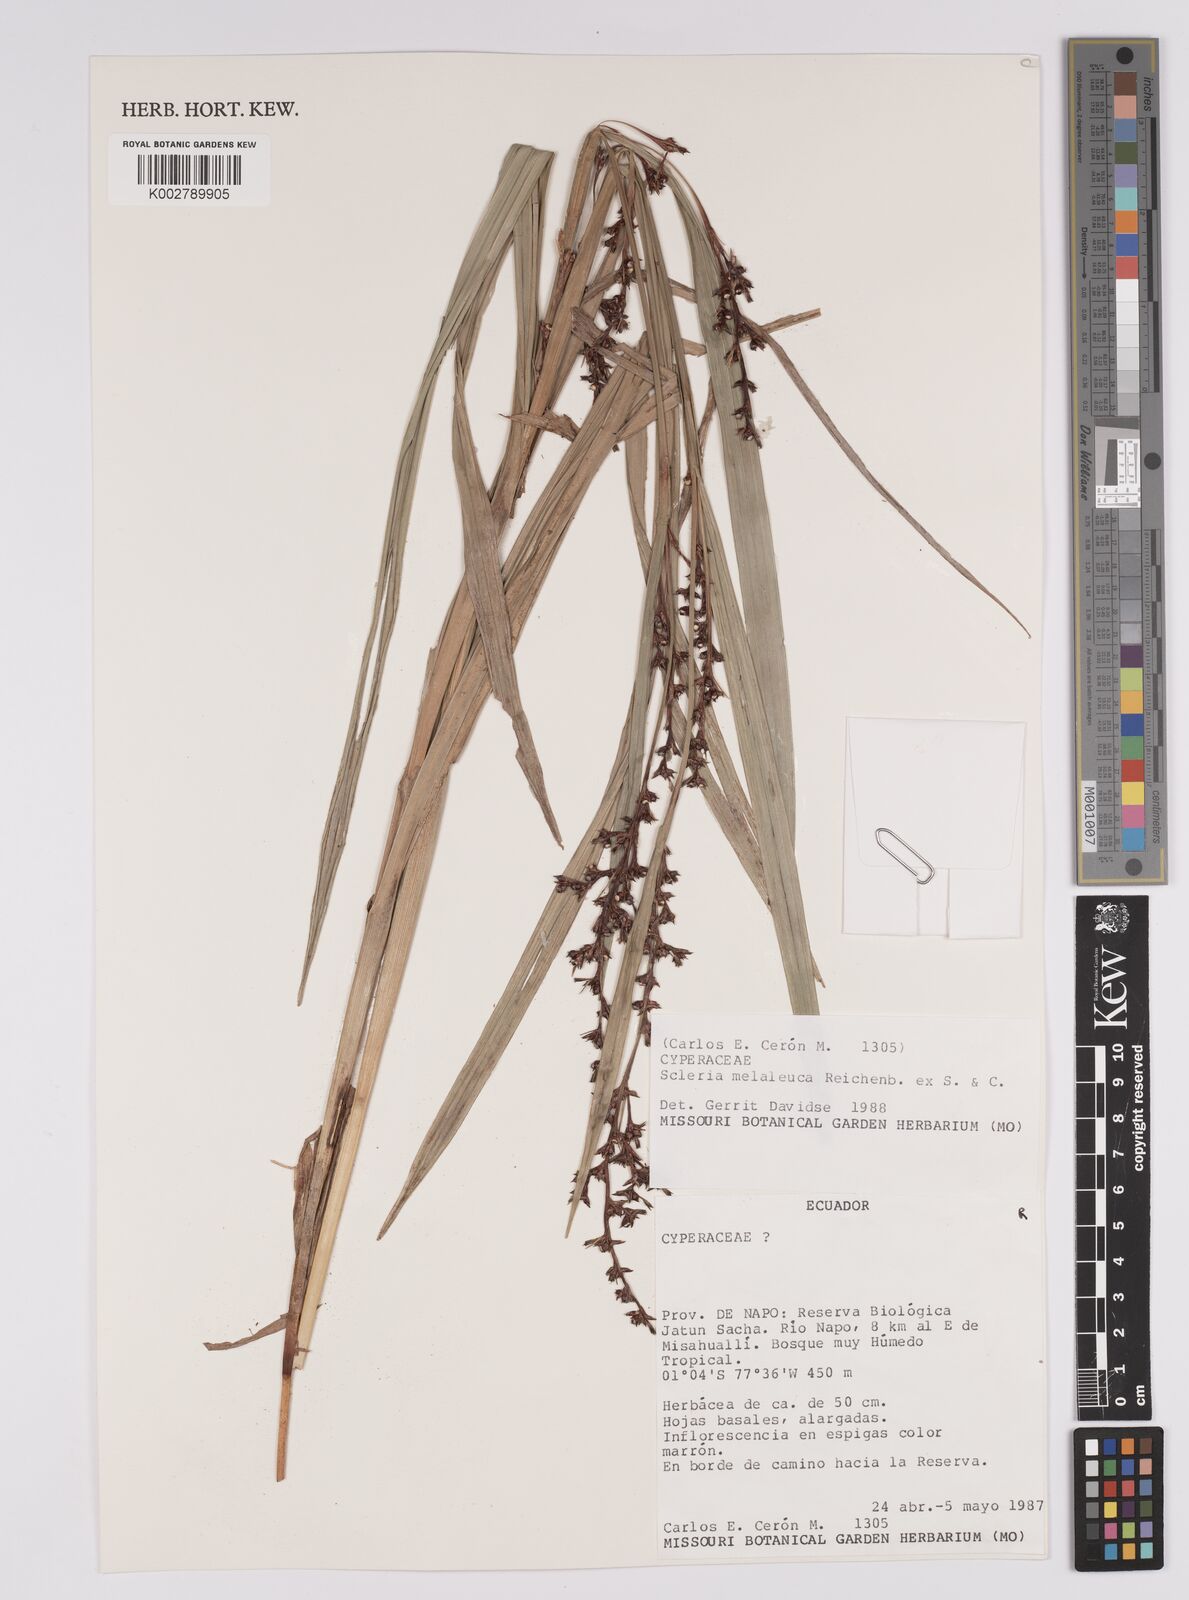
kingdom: Plantae
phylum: Tracheophyta
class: Liliopsida
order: Poales
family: Cyperaceae
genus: Scleria
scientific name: Scleria gaertneri
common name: Cortadera blanca
